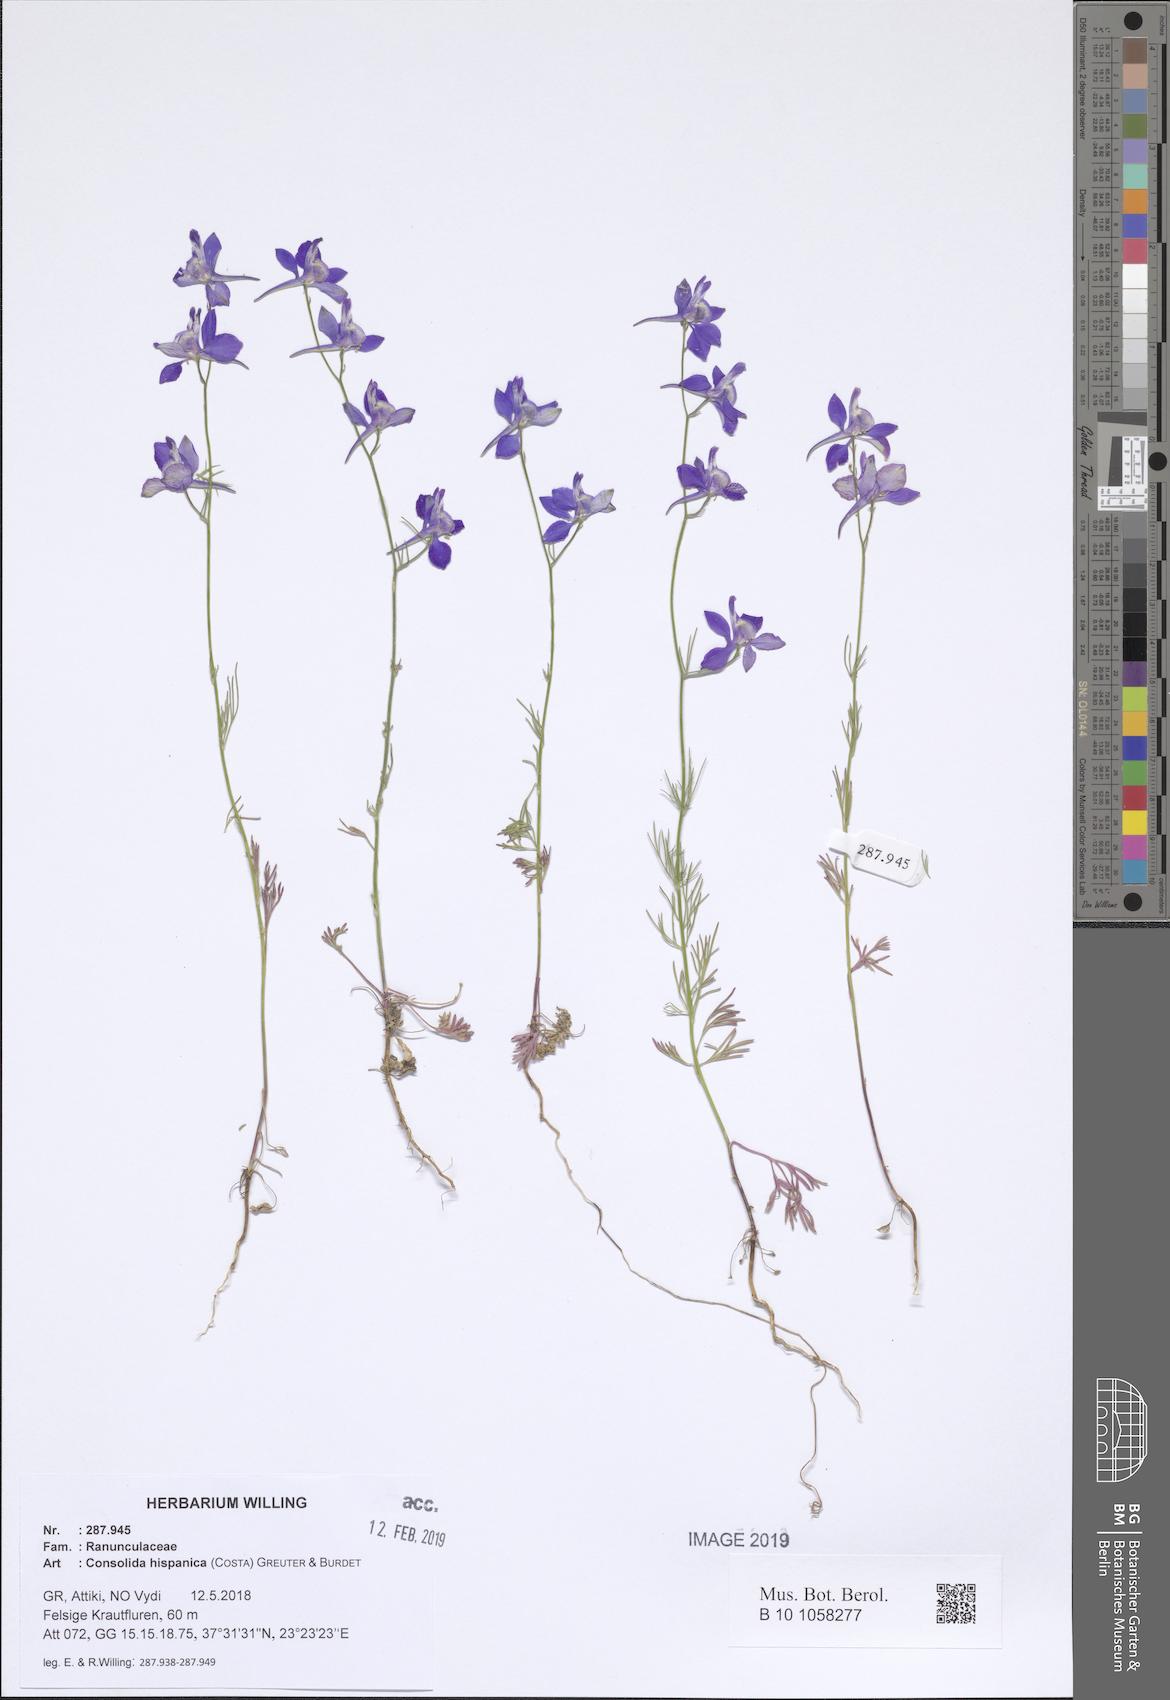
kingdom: Plantae
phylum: Tracheophyta
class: Magnoliopsida
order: Ranunculales
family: Ranunculaceae
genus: Delphinium
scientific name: Delphinium hispanicum
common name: Oriental knight's-spur
